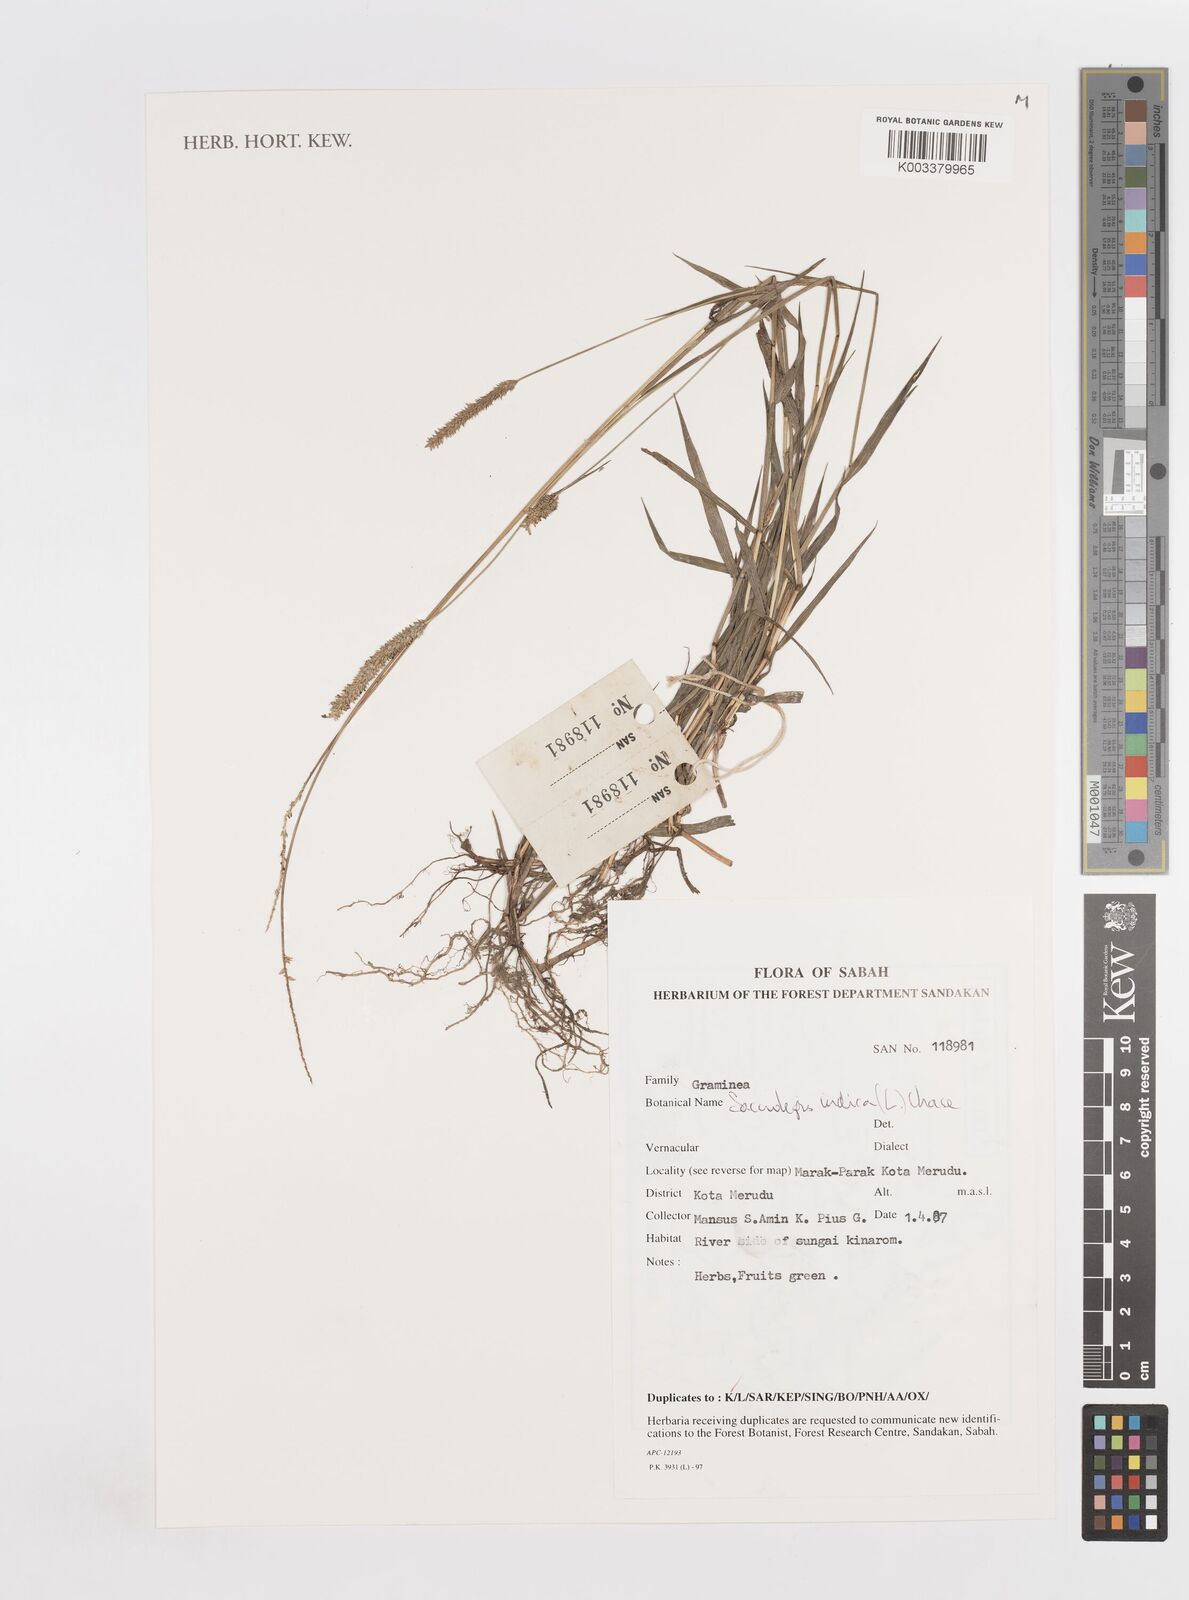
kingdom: Plantae
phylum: Tracheophyta
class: Liliopsida
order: Poales
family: Poaceae
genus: Sacciolepis
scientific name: Sacciolepis indica
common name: Glenwoodgrass
